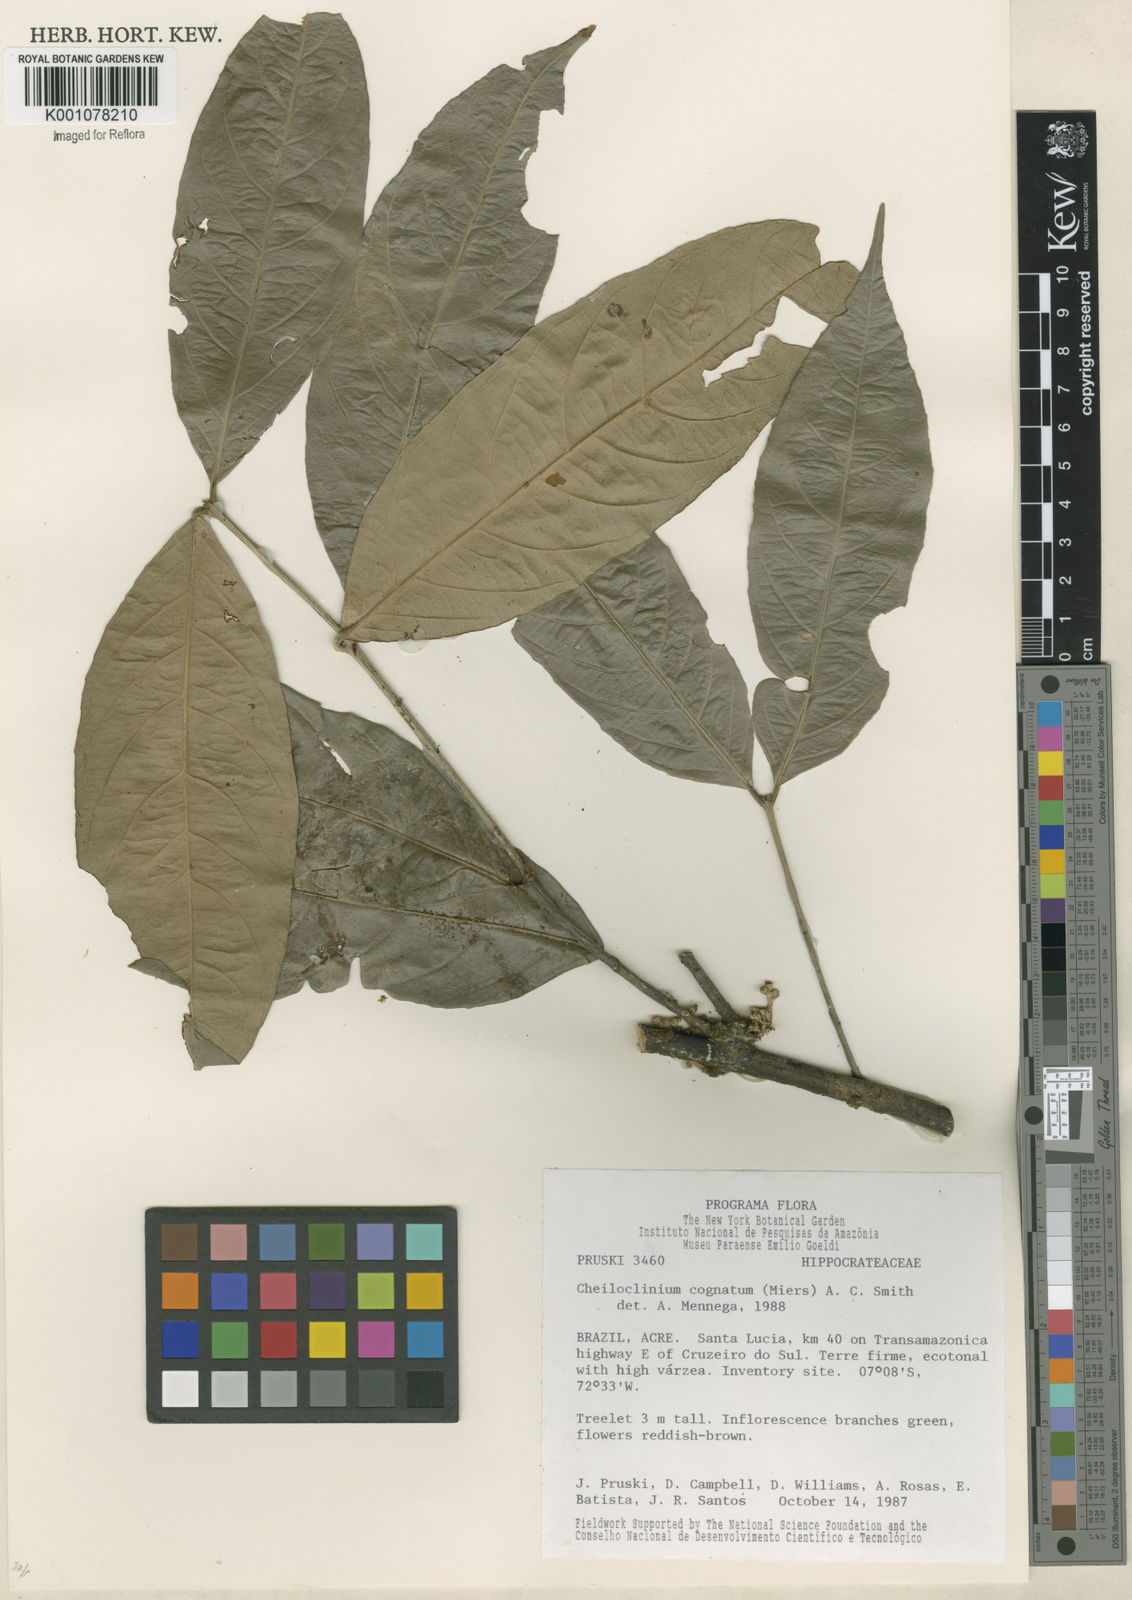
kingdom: Plantae
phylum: Tracheophyta
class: Magnoliopsida
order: Celastrales
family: Celastraceae
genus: Cheiloclinium
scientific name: Cheiloclinium cognatum
